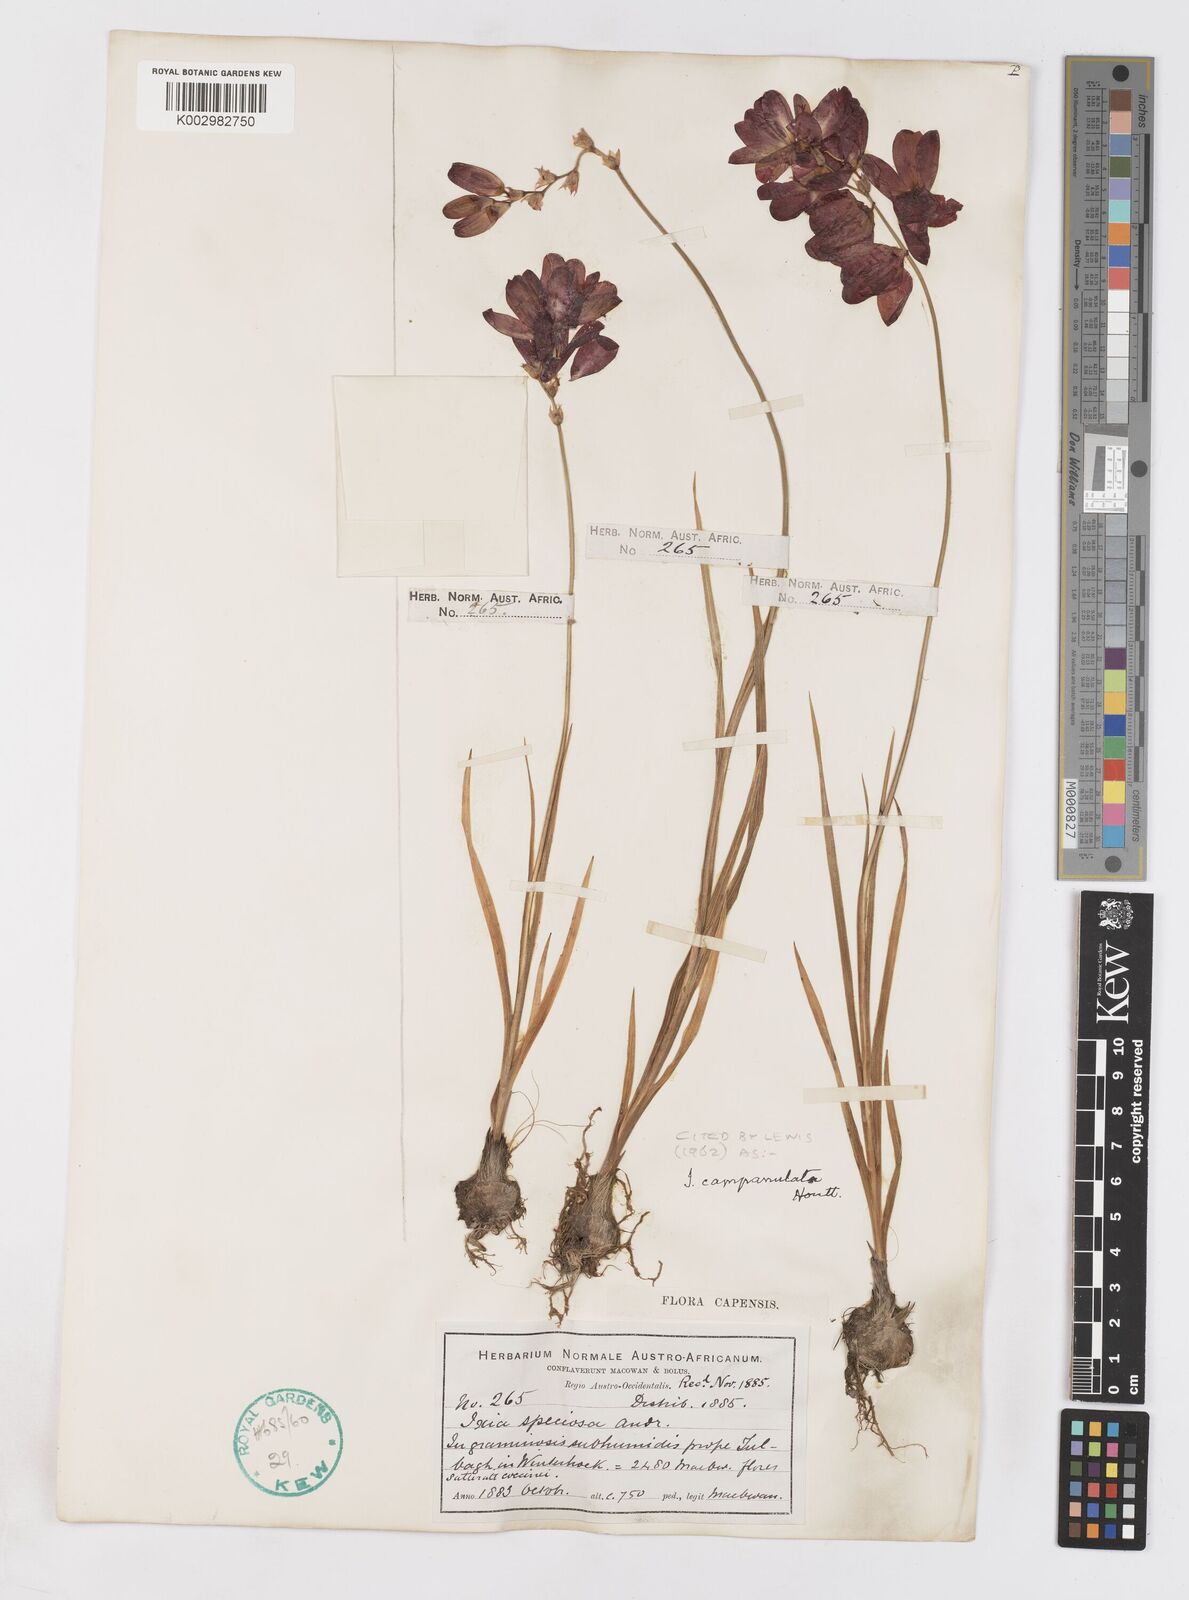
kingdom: Plantae
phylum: Tracheophyta
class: Liliopsida
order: Asparagales
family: Iridaceae
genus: Ixia
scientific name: Ixia campanulata
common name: Red corn-lily
